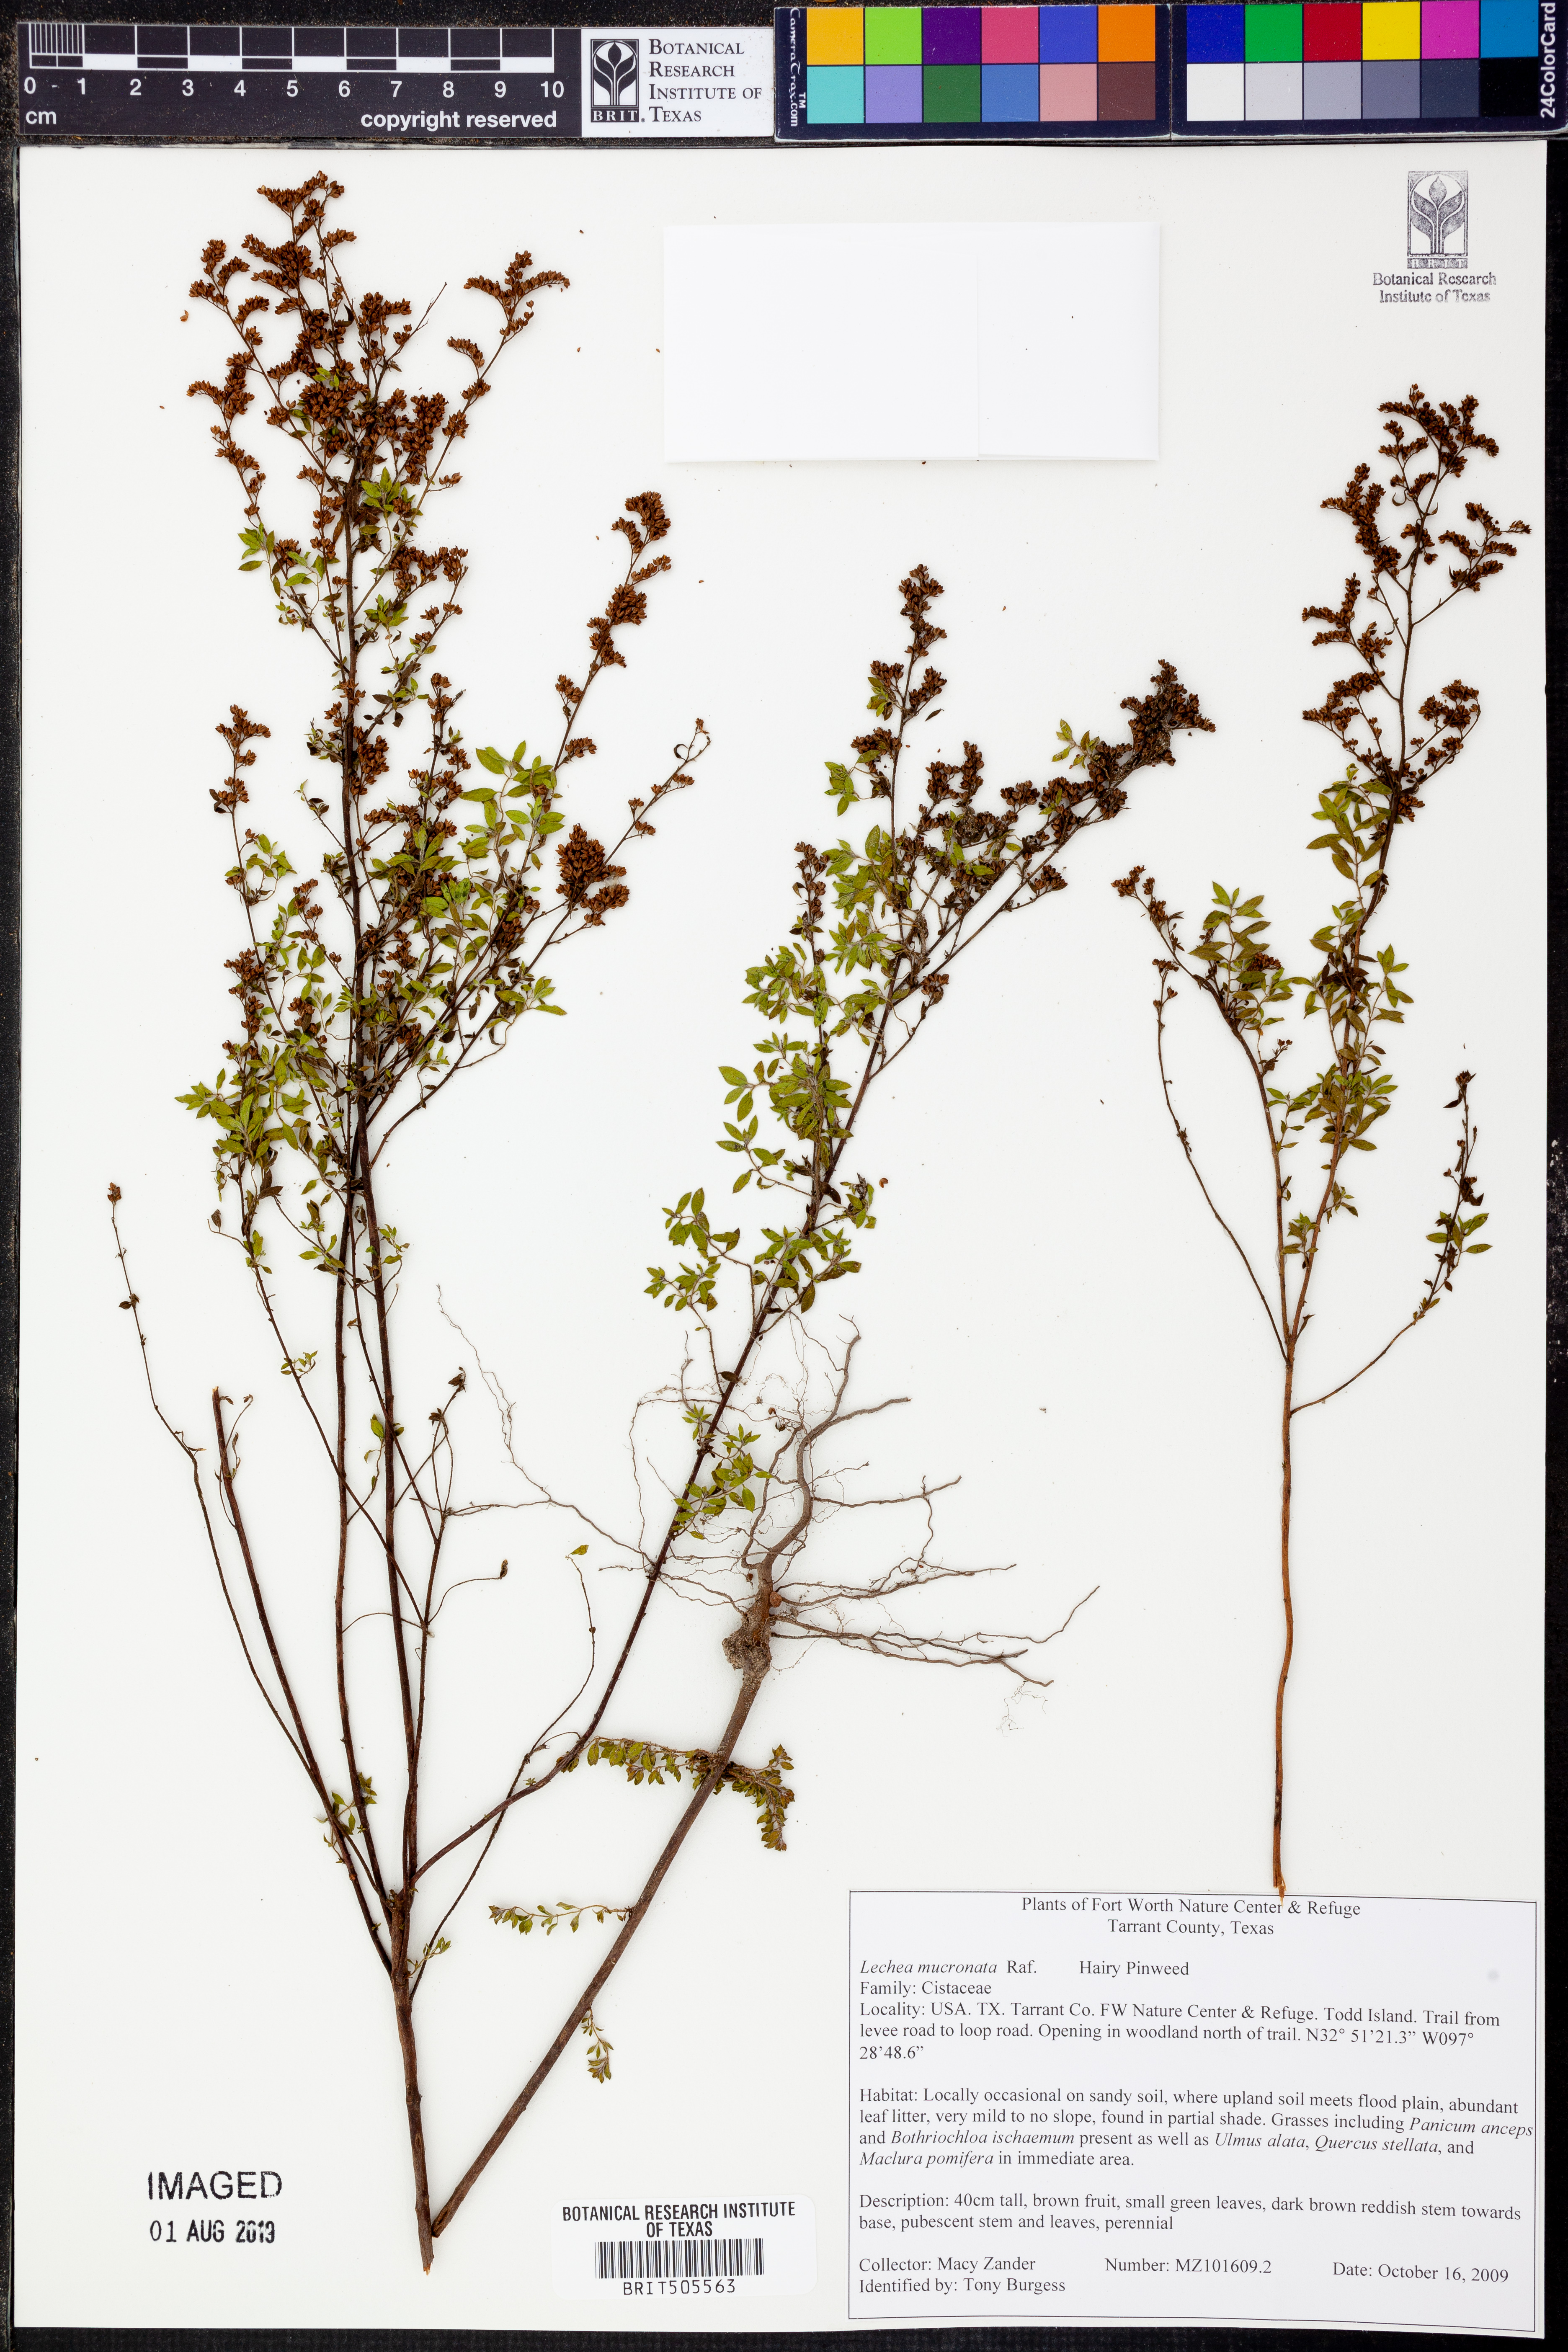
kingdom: Plantae
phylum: Tracheophyta
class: Magnoliopsida
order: Malvales
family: Cistaceae
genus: Lechea
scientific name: Lechea mucronata
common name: Hairy pinweed
